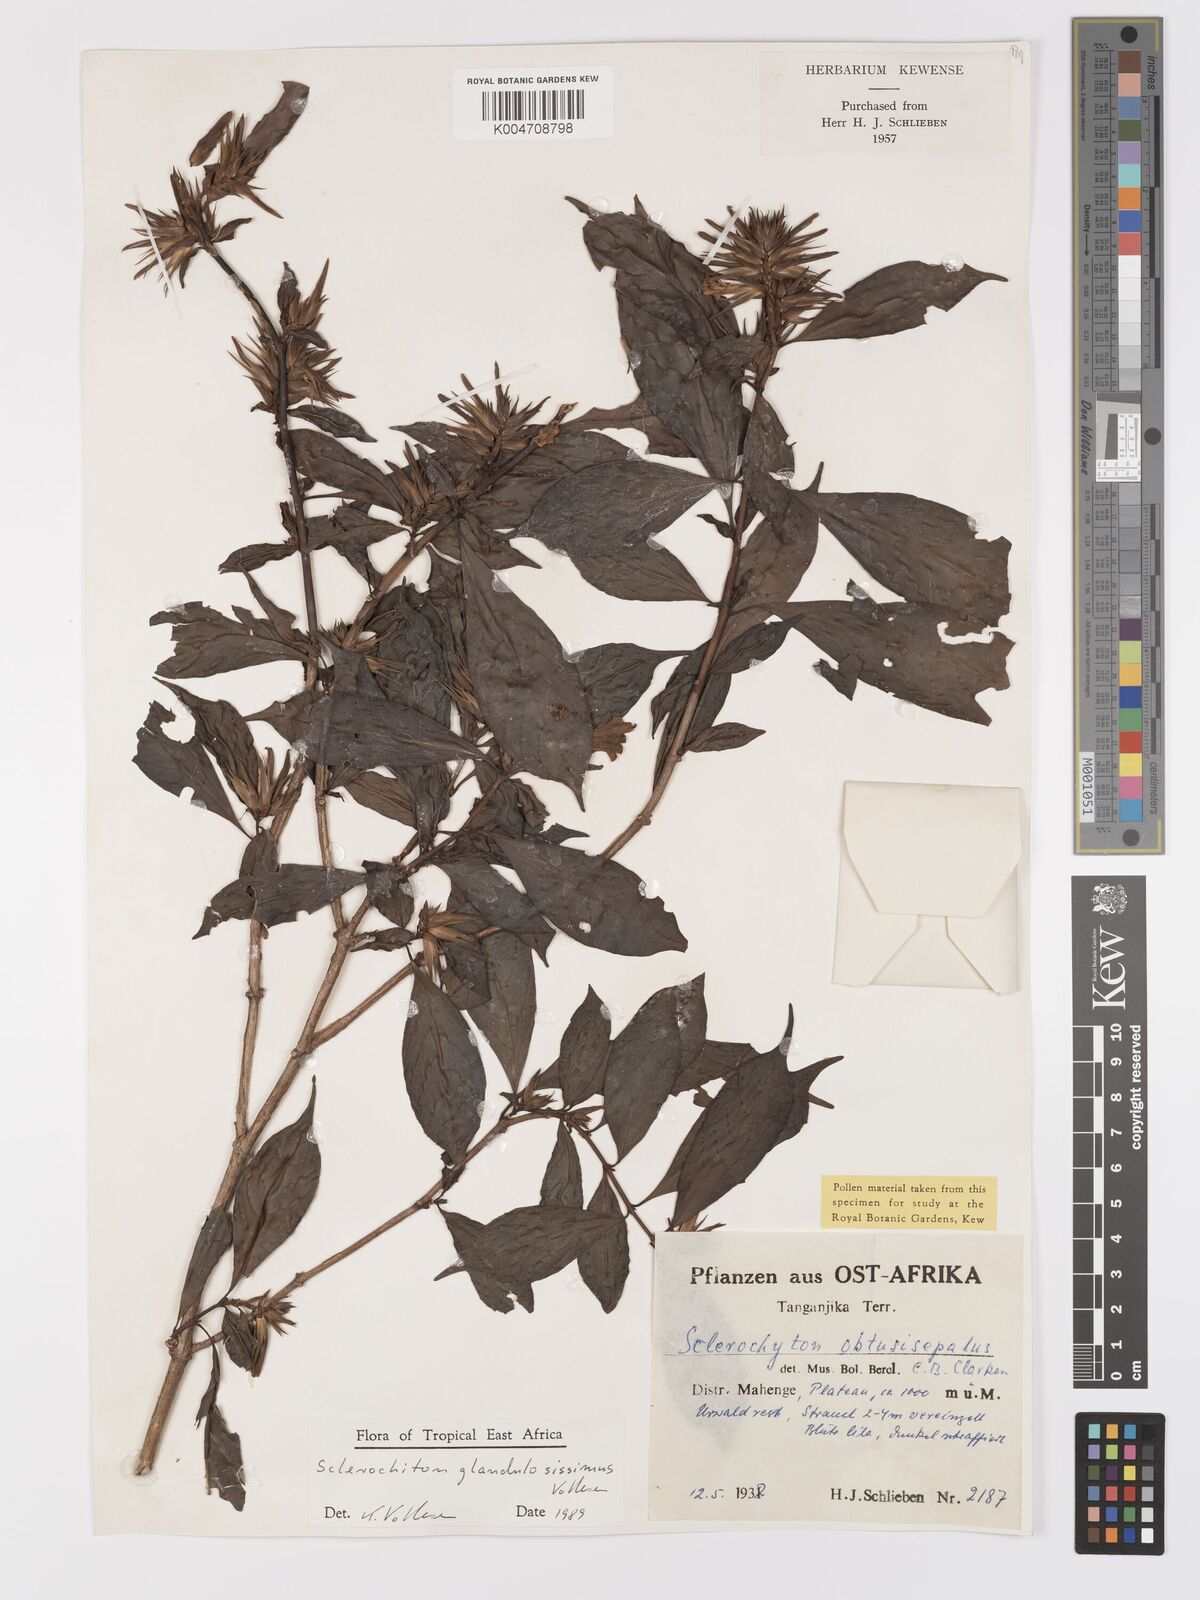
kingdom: Plantae
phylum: Tracheophyta
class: Magnoliopsida
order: Lamiales
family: Acanthaceae
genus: Sclerochiton
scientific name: Sclerochiton glandulosissimus
